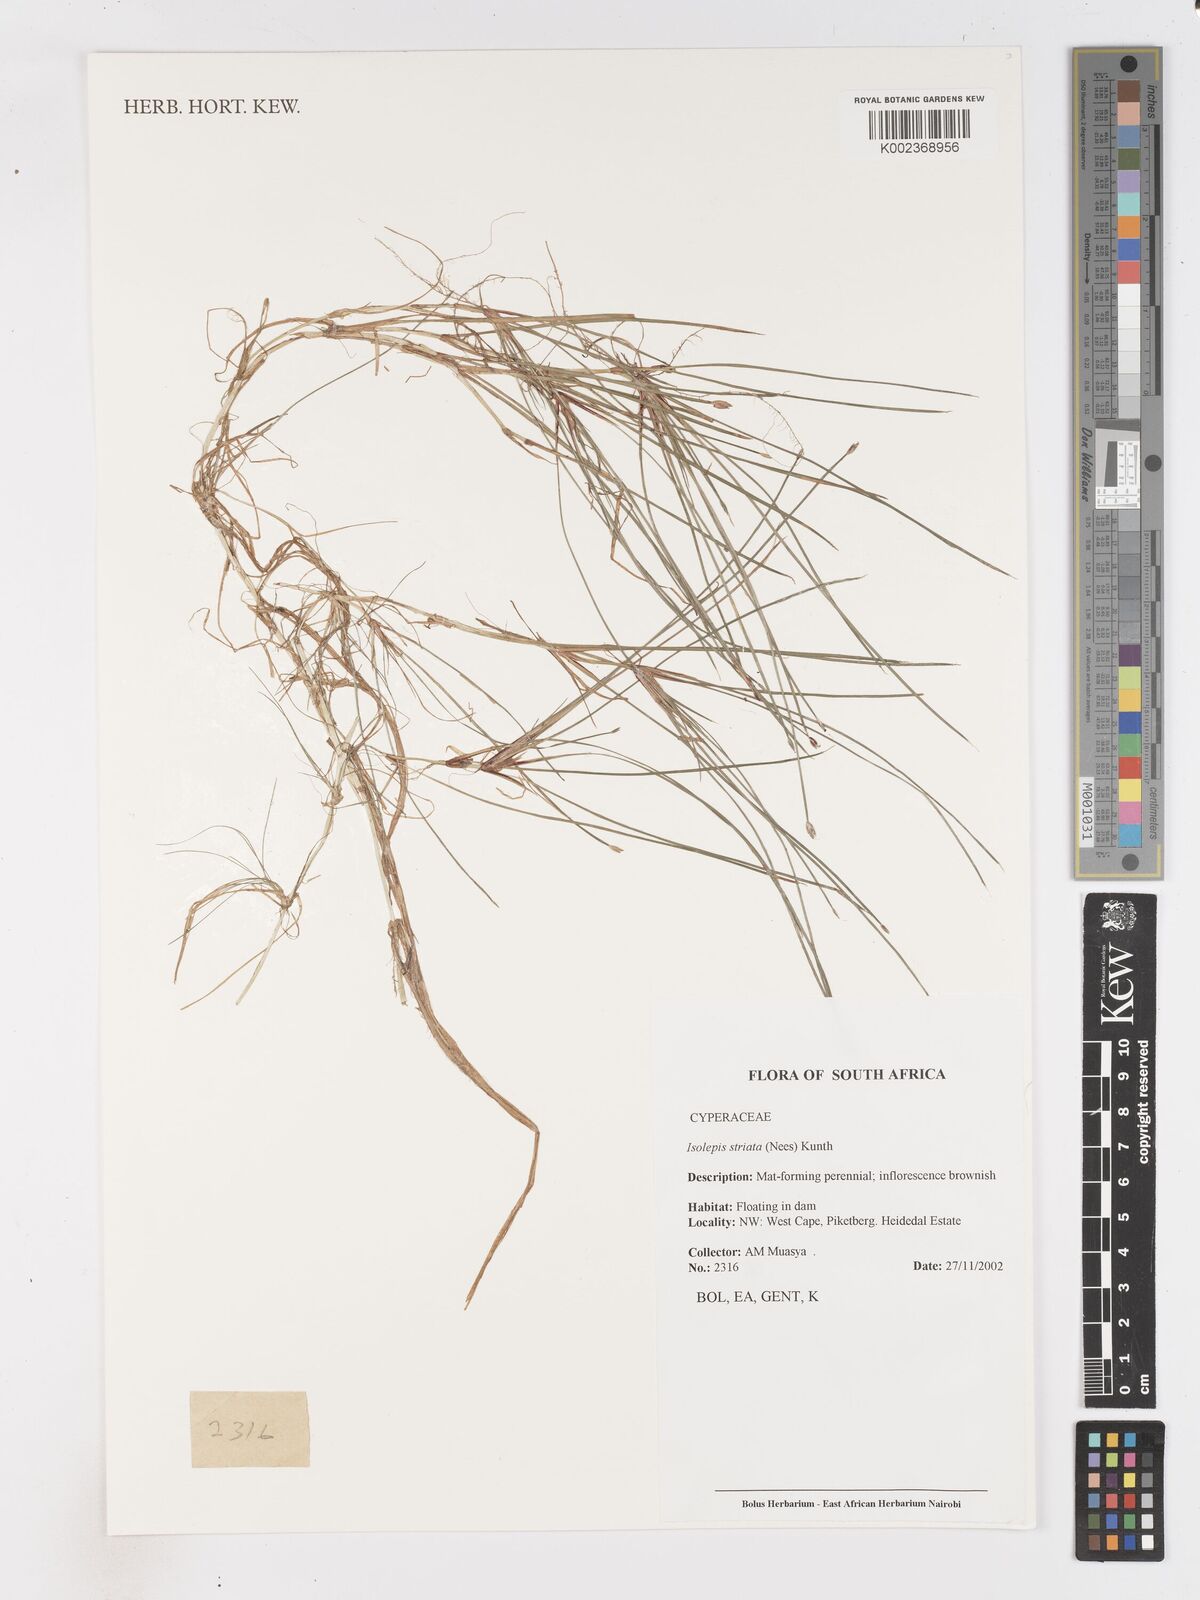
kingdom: Plantae
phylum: Tracheophyta
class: Liliopsida
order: Poales
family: Cyperaceae
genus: Isolepis
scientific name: Isolepis striata
